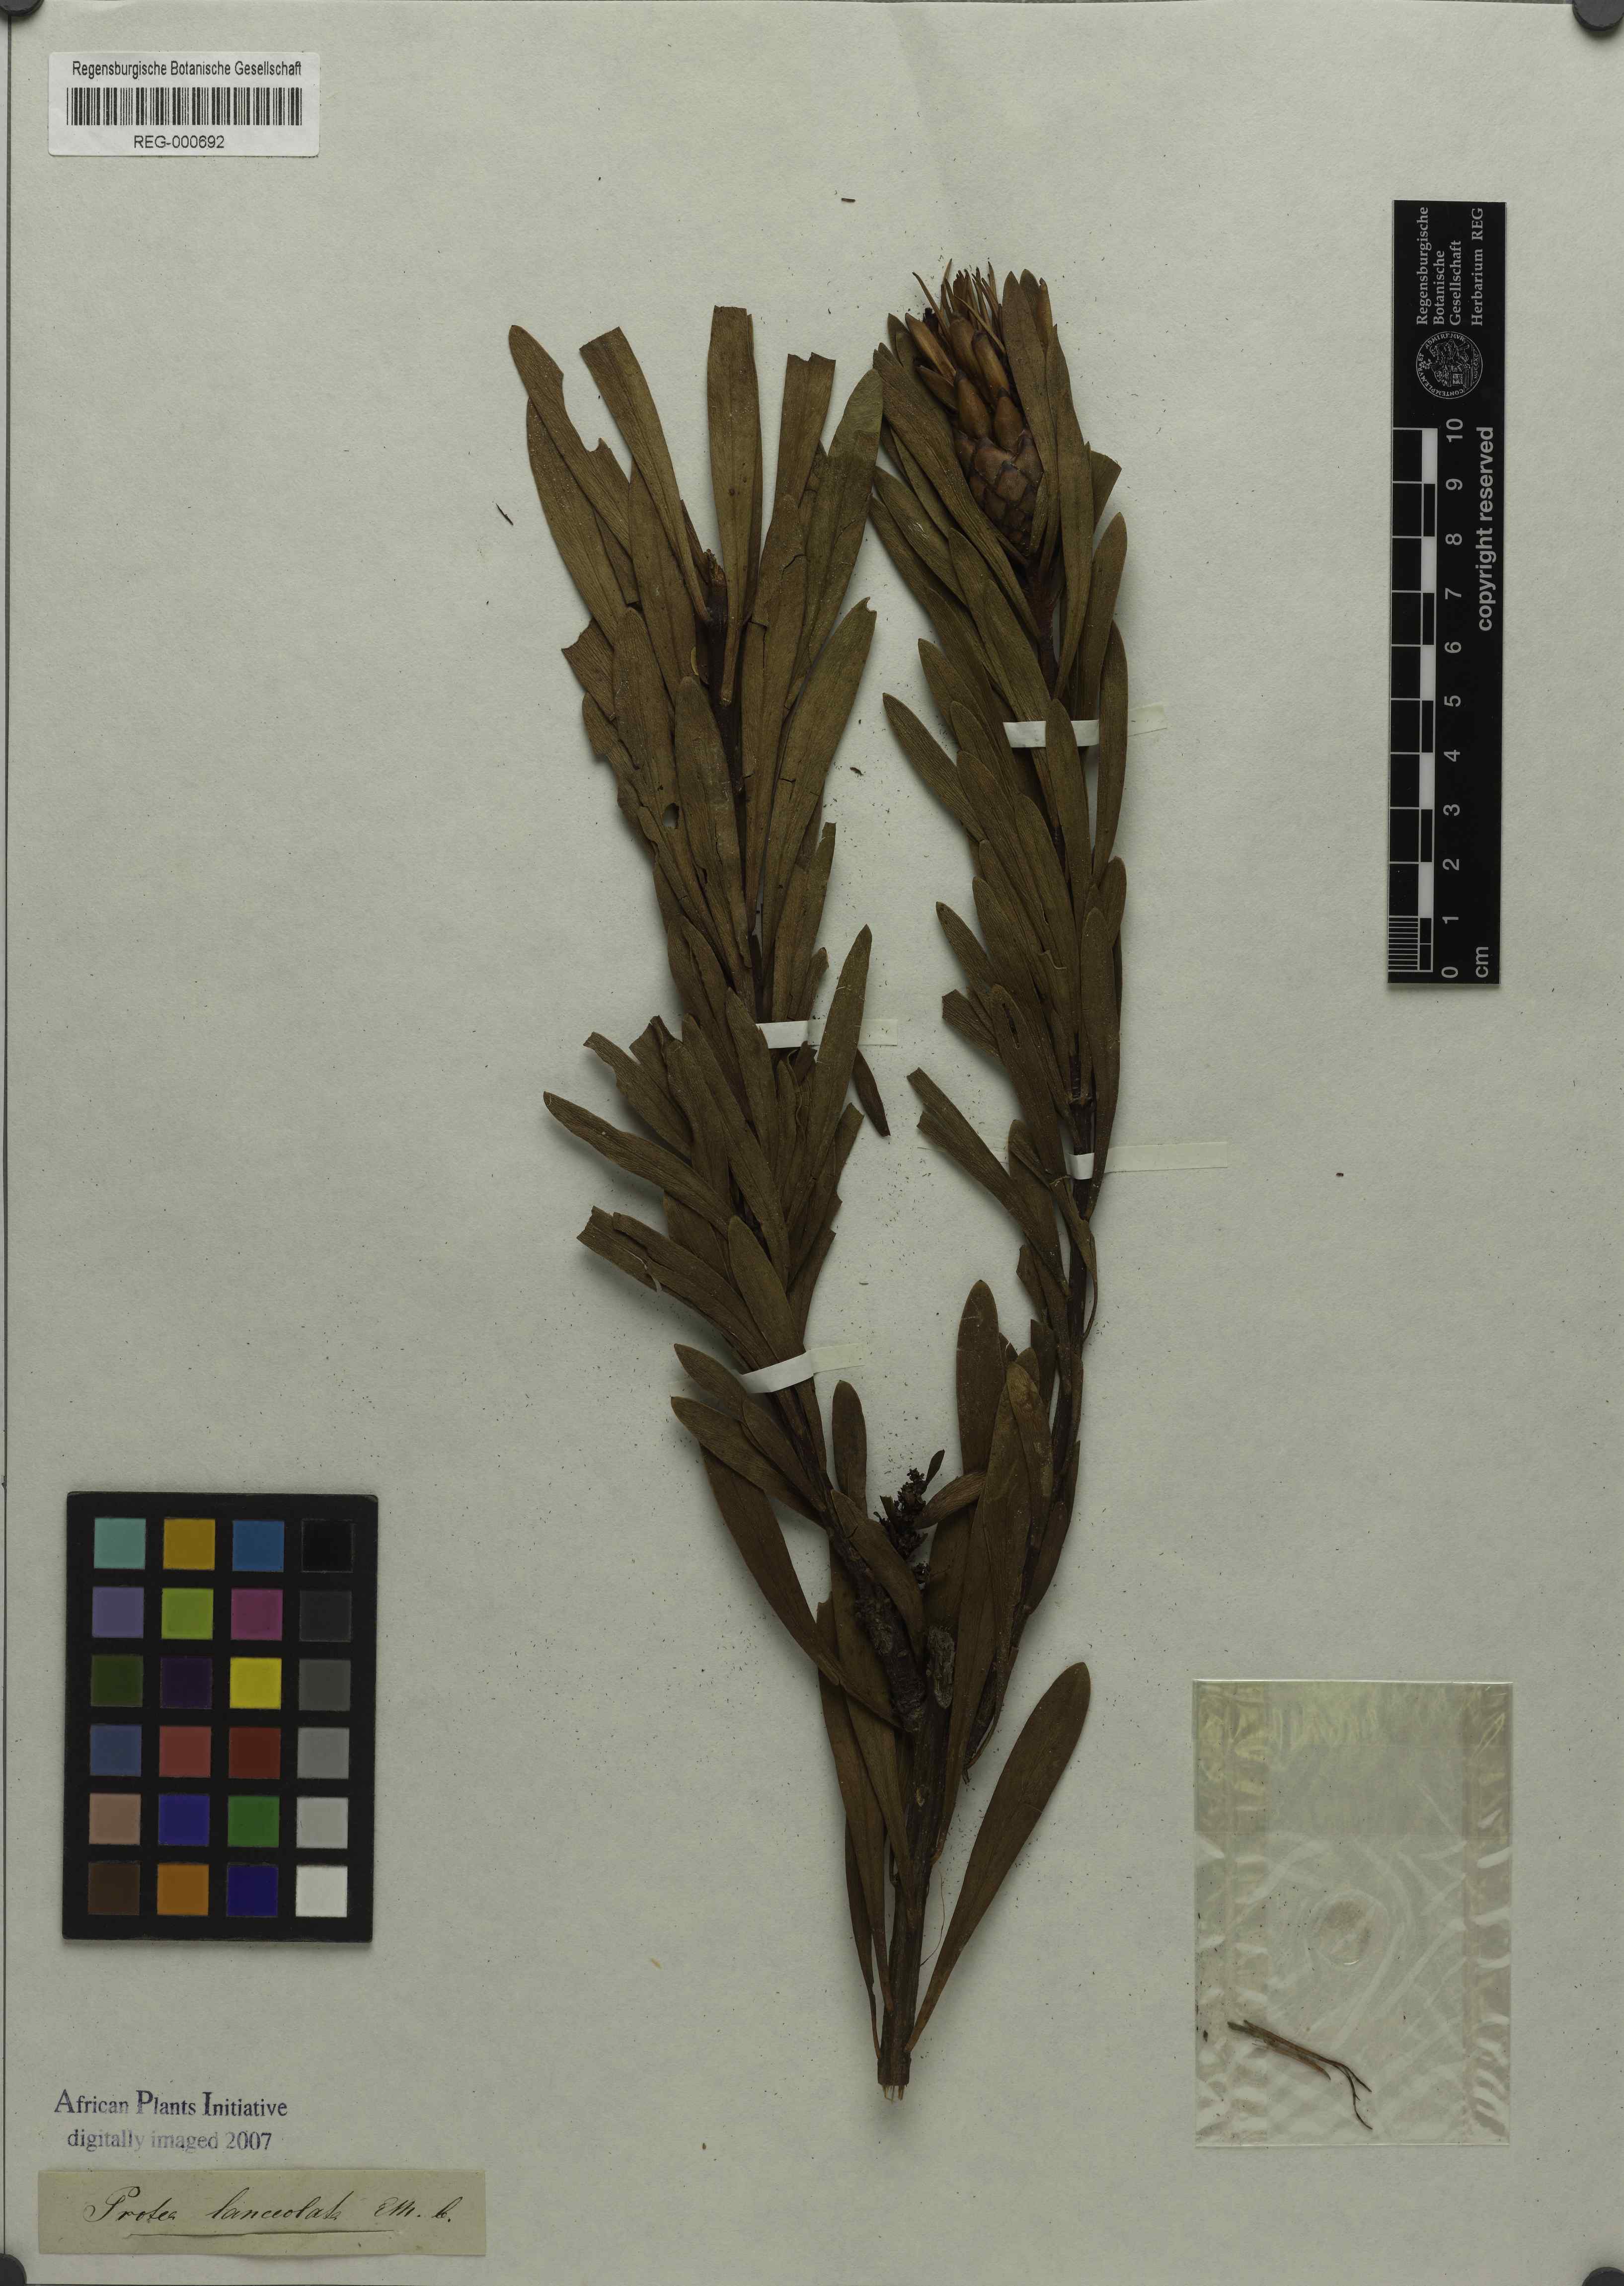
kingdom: Plantae
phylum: Tracheophyta
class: Magnoliopsida
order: Proteales
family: Proteaceae
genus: Protea
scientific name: Protea lanceolata
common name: Lance-leaved protea
